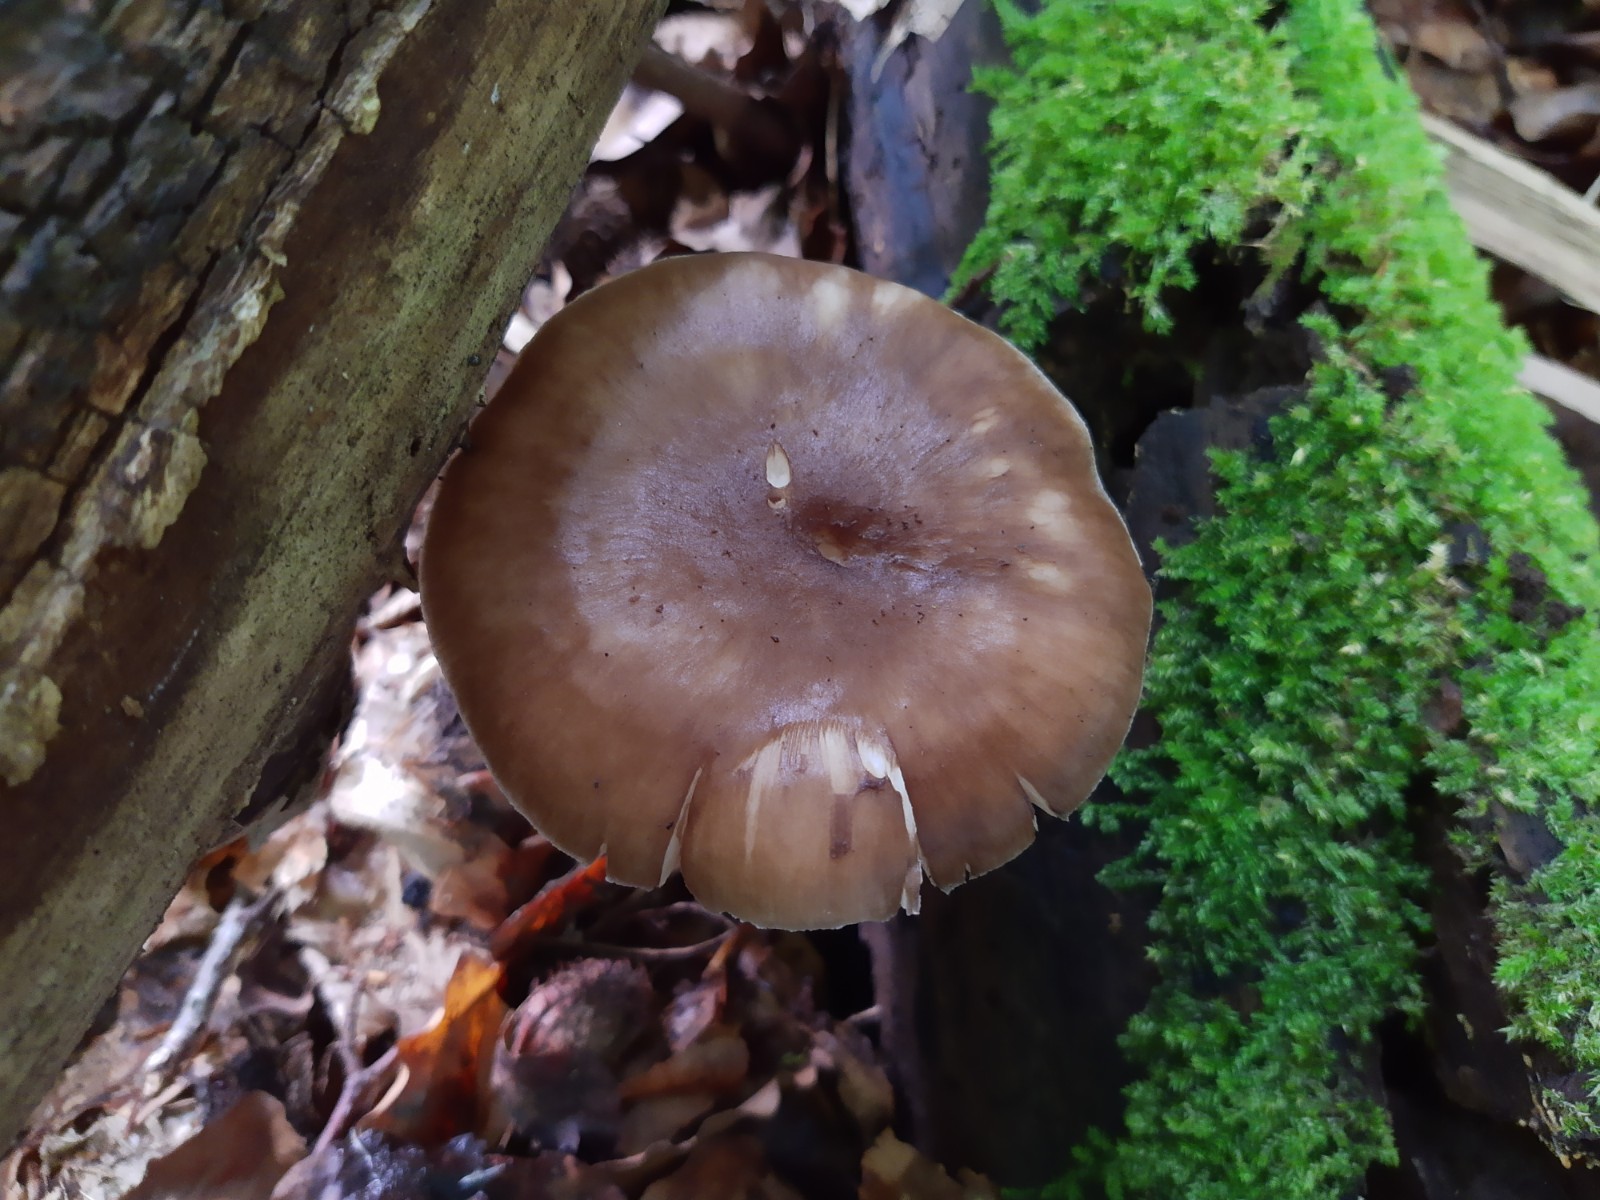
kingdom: Fungi
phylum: Basidiomycota
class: Agaricomycetes
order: Agaricales
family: Pluteaceae
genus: Pluteus
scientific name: Pluteus cervinus
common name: sodfarvet skærmhat
